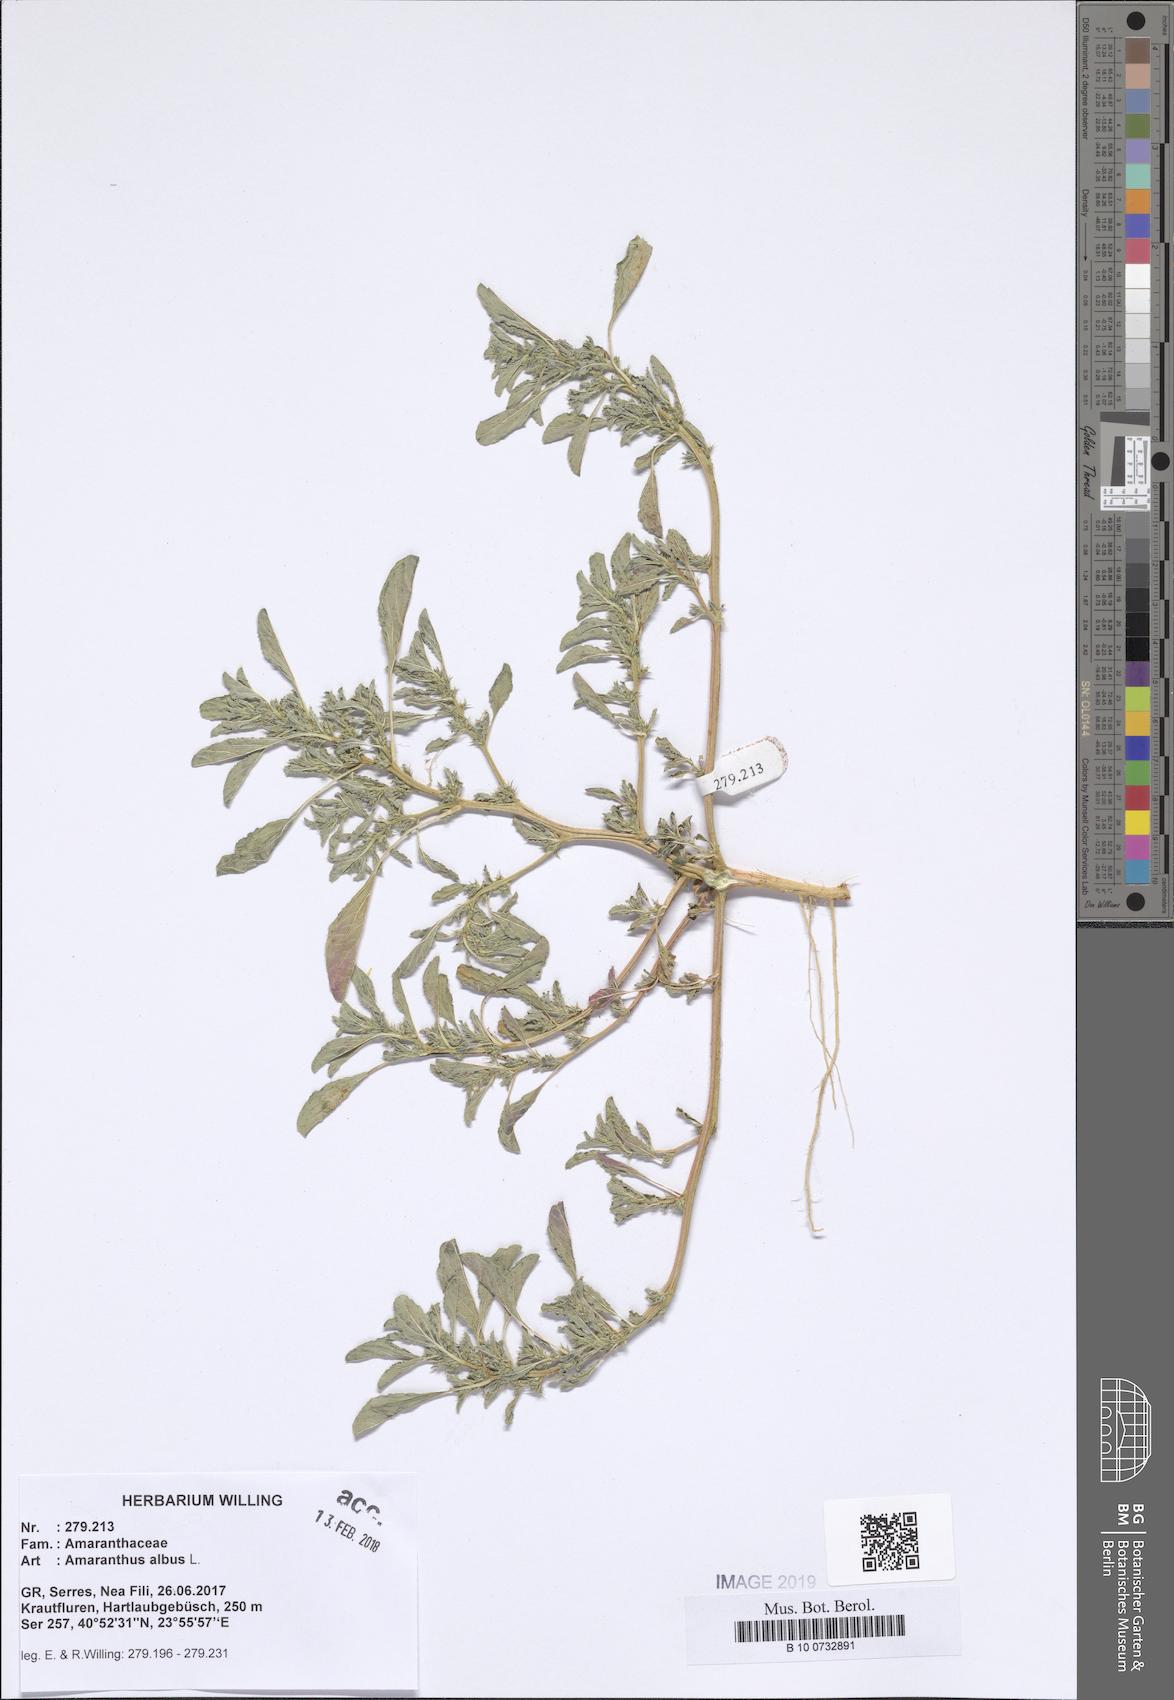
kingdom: Plantae
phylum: Tracheophyta
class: Magnoliopsida
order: Caryophyllales
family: Amaranthaceae
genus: Amaranthus
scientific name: Amaranthus albus
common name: White pigweed
